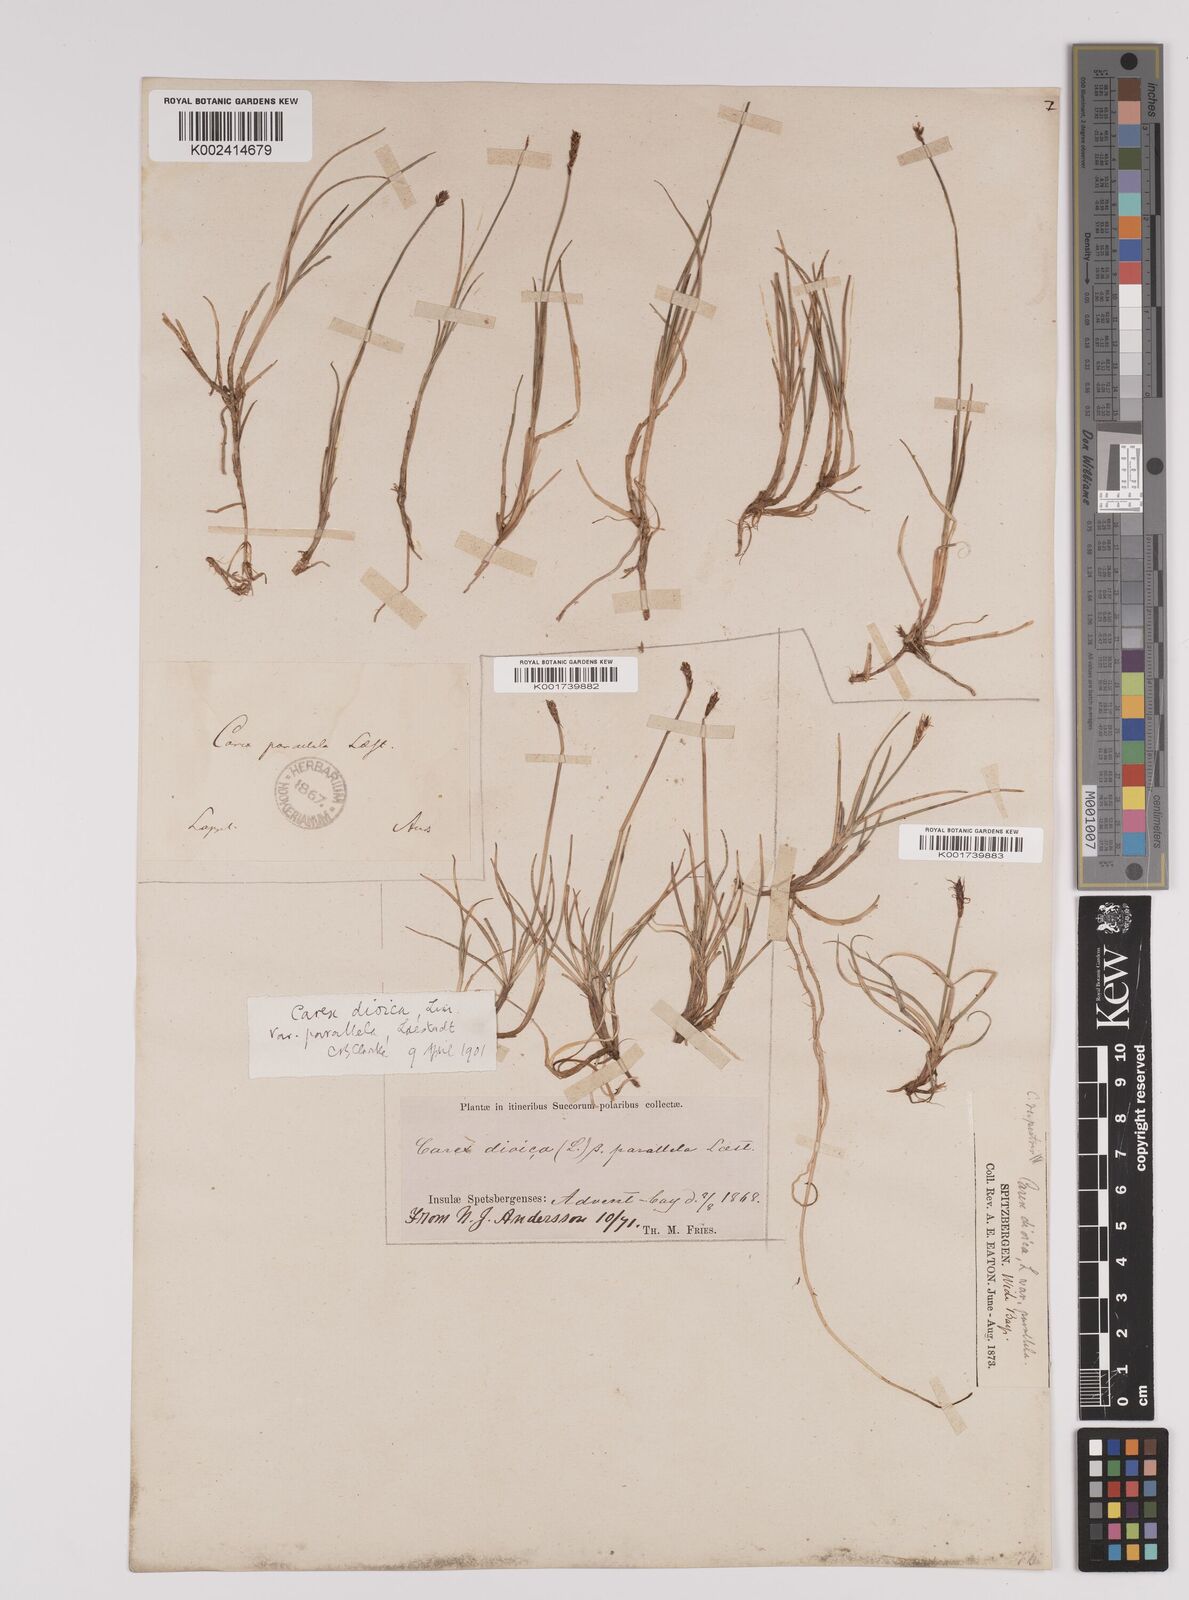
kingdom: Plantae
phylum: Tracheophyta
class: Liliopsida
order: Poales
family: Cyperaceae
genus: Carex
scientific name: Carex parallela
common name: Parallel sedge
